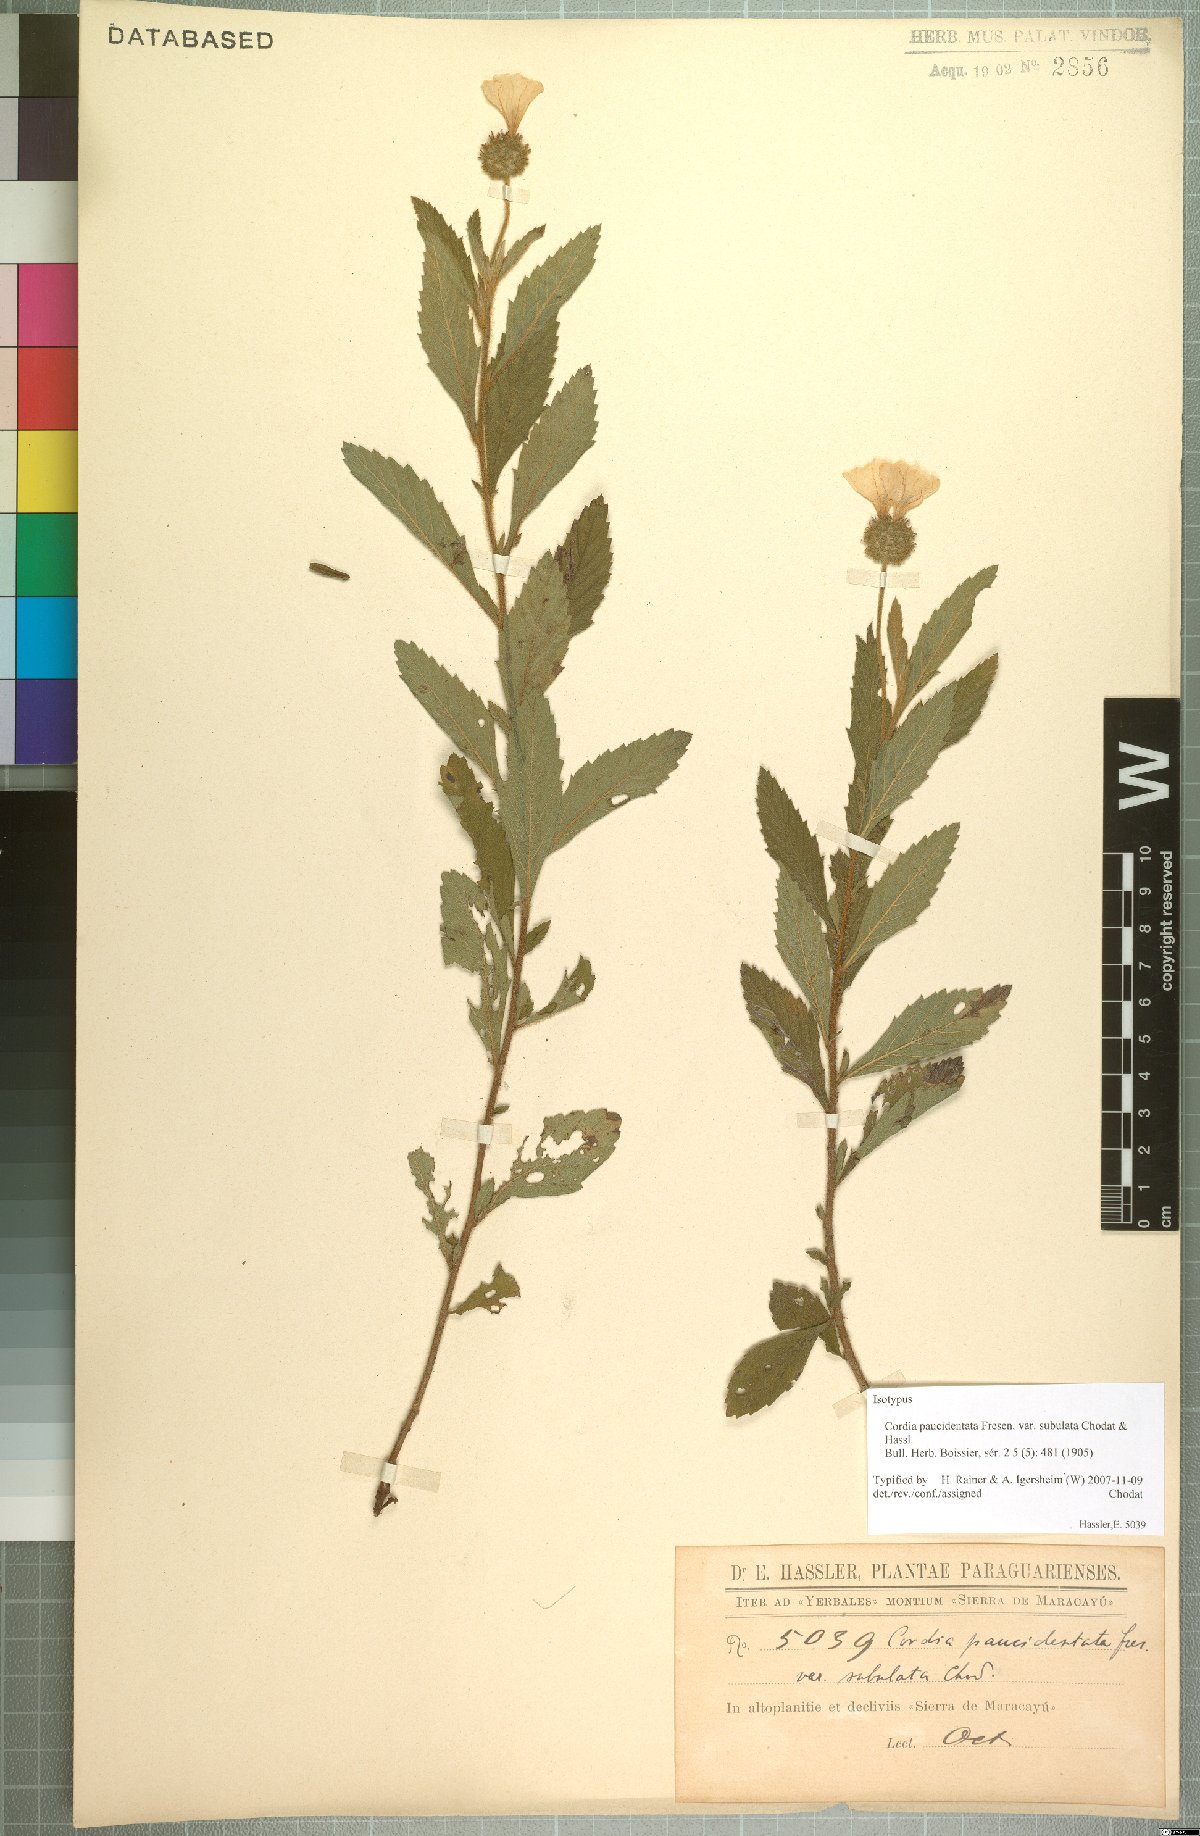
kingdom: Plantae
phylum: Tracheophyta
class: Magnoliopsida
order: Boraginales
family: Cordiaceae
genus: Varronia
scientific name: Varronia paucidentata
